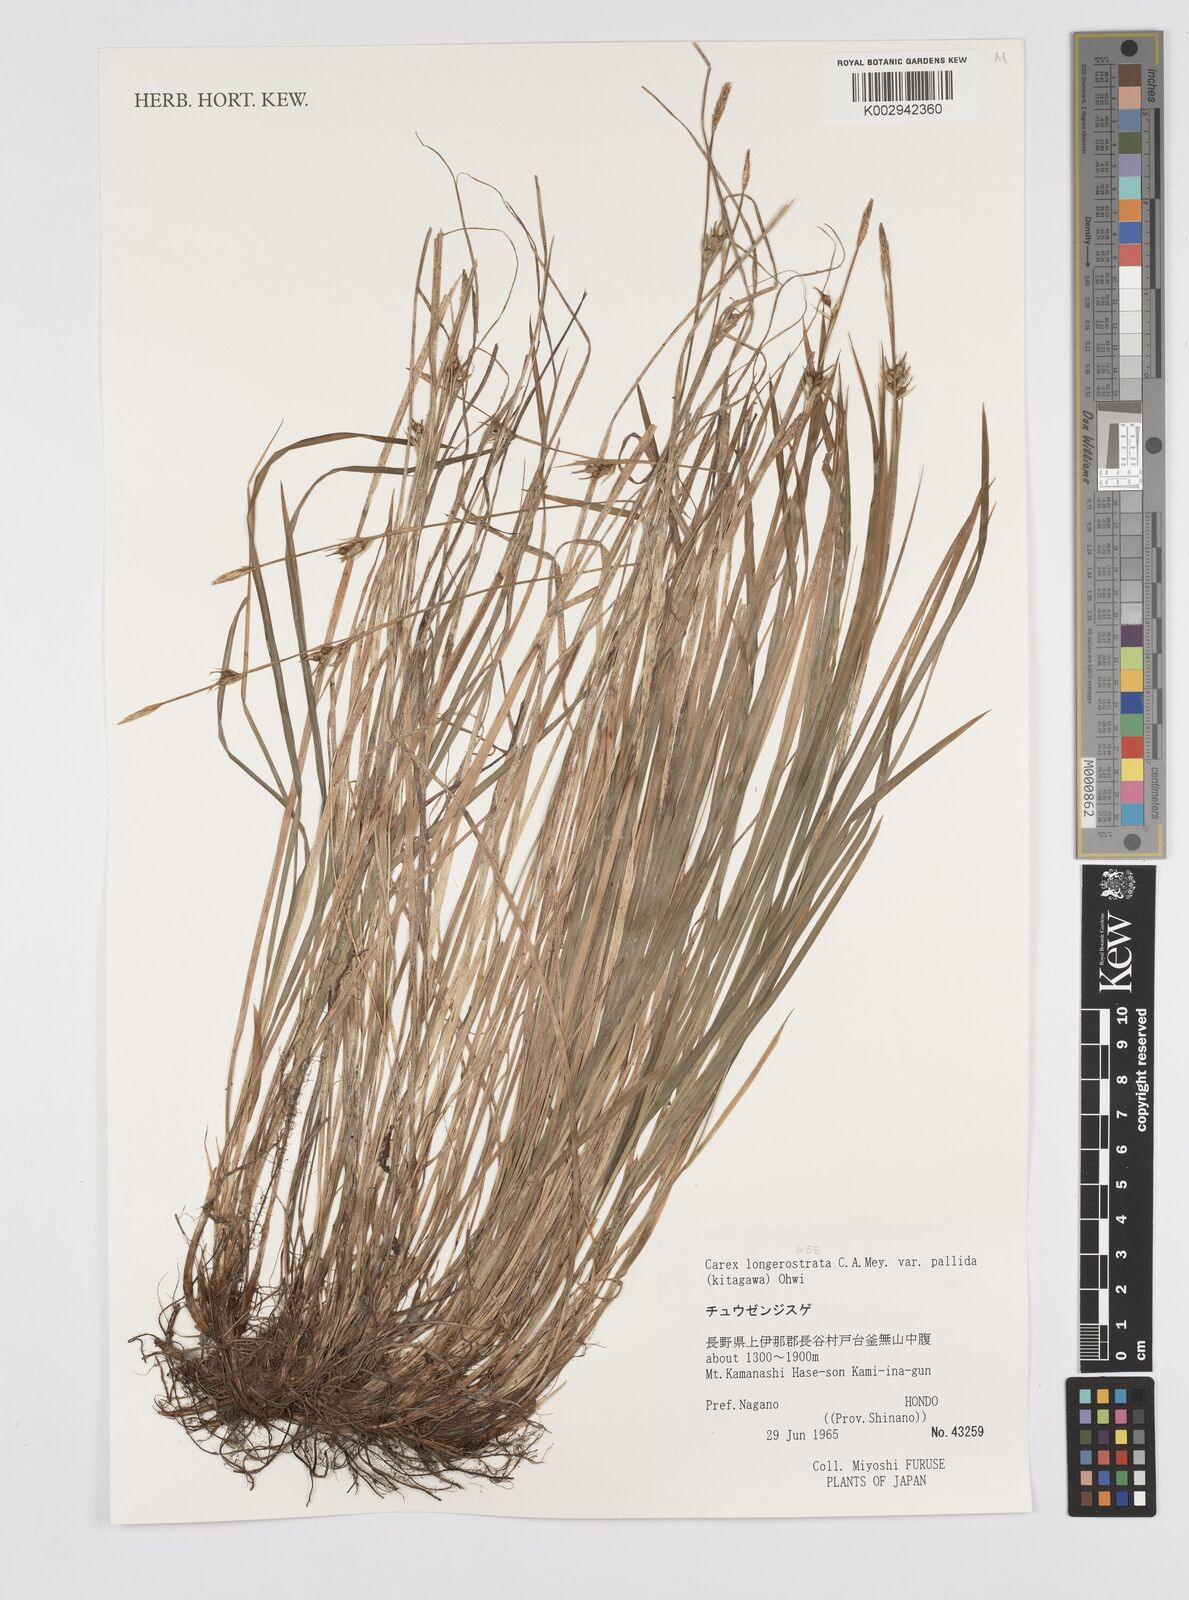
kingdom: Plantae
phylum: Tracheophyta
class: Liliopsida
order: Poales
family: Cyperaceae
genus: Carex
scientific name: Carex longerostrata
